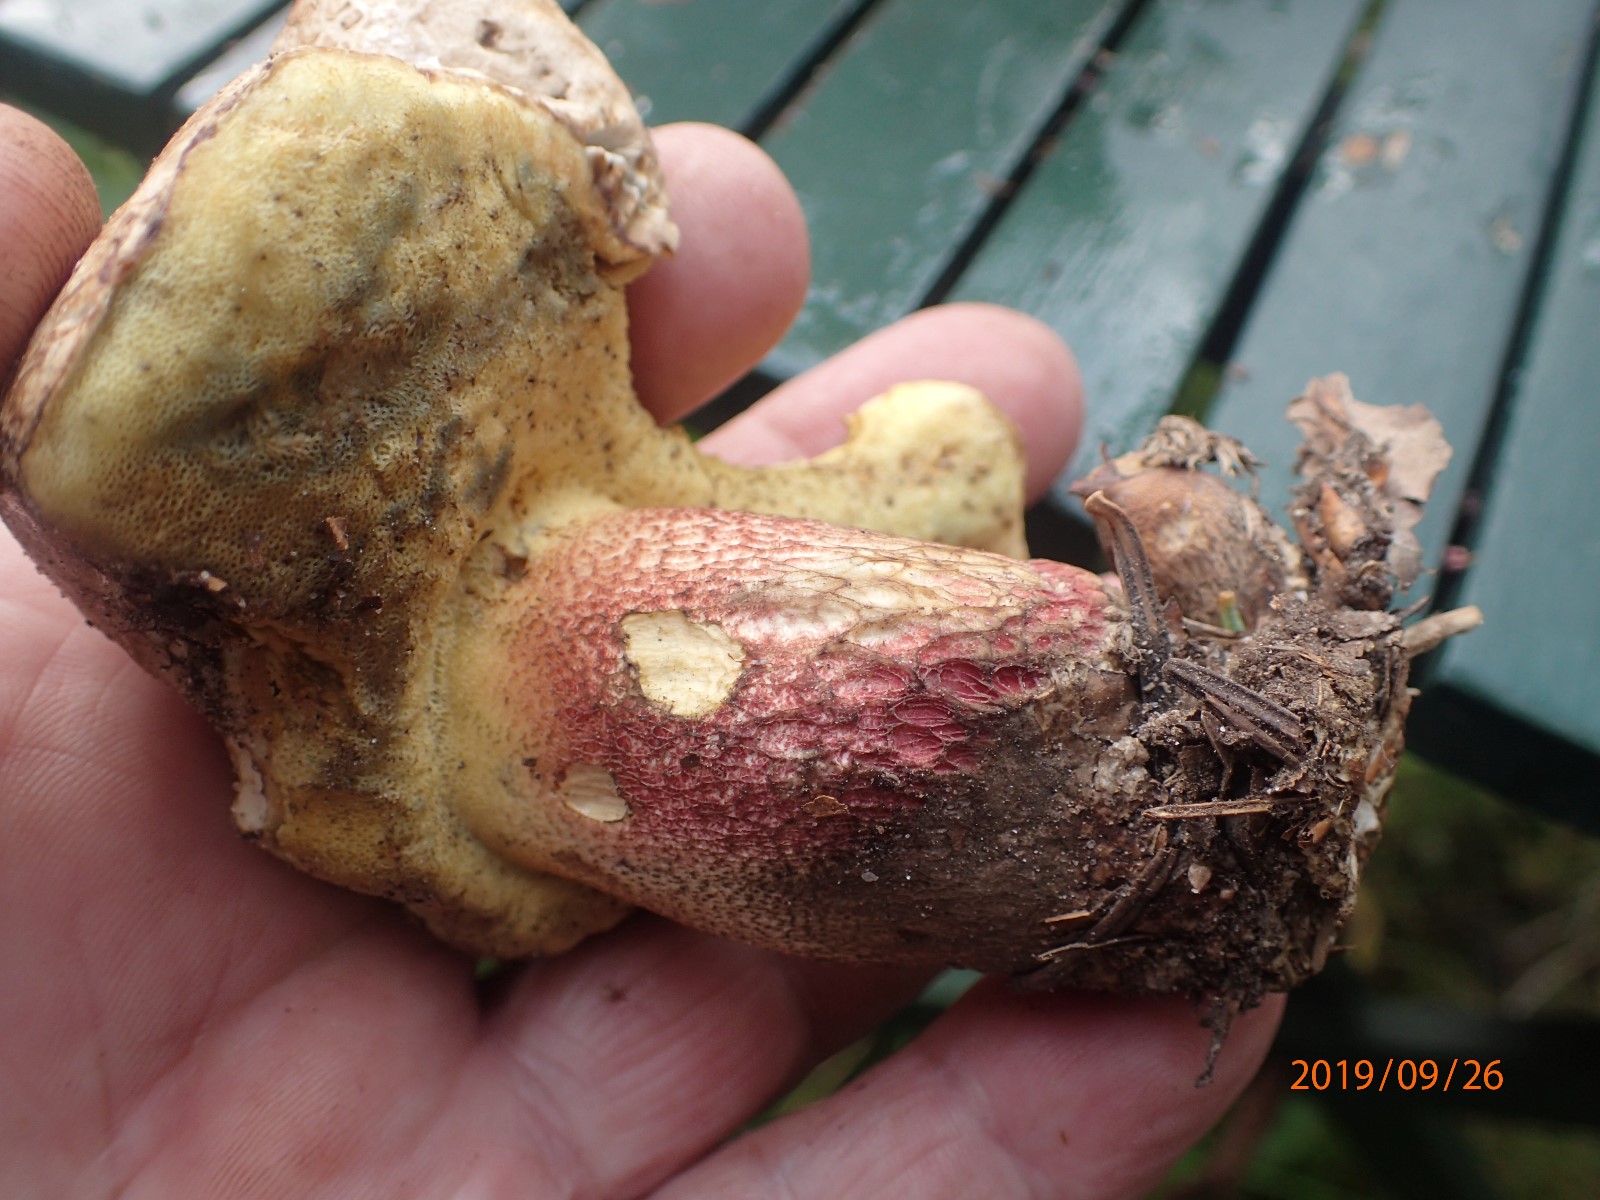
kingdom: Fungi
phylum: Basidiomycota
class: Agaricomycetes
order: Boletales
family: Boletaceae
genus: Caloboletus
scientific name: Caloboletus calopus
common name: skønfodet rørhat
